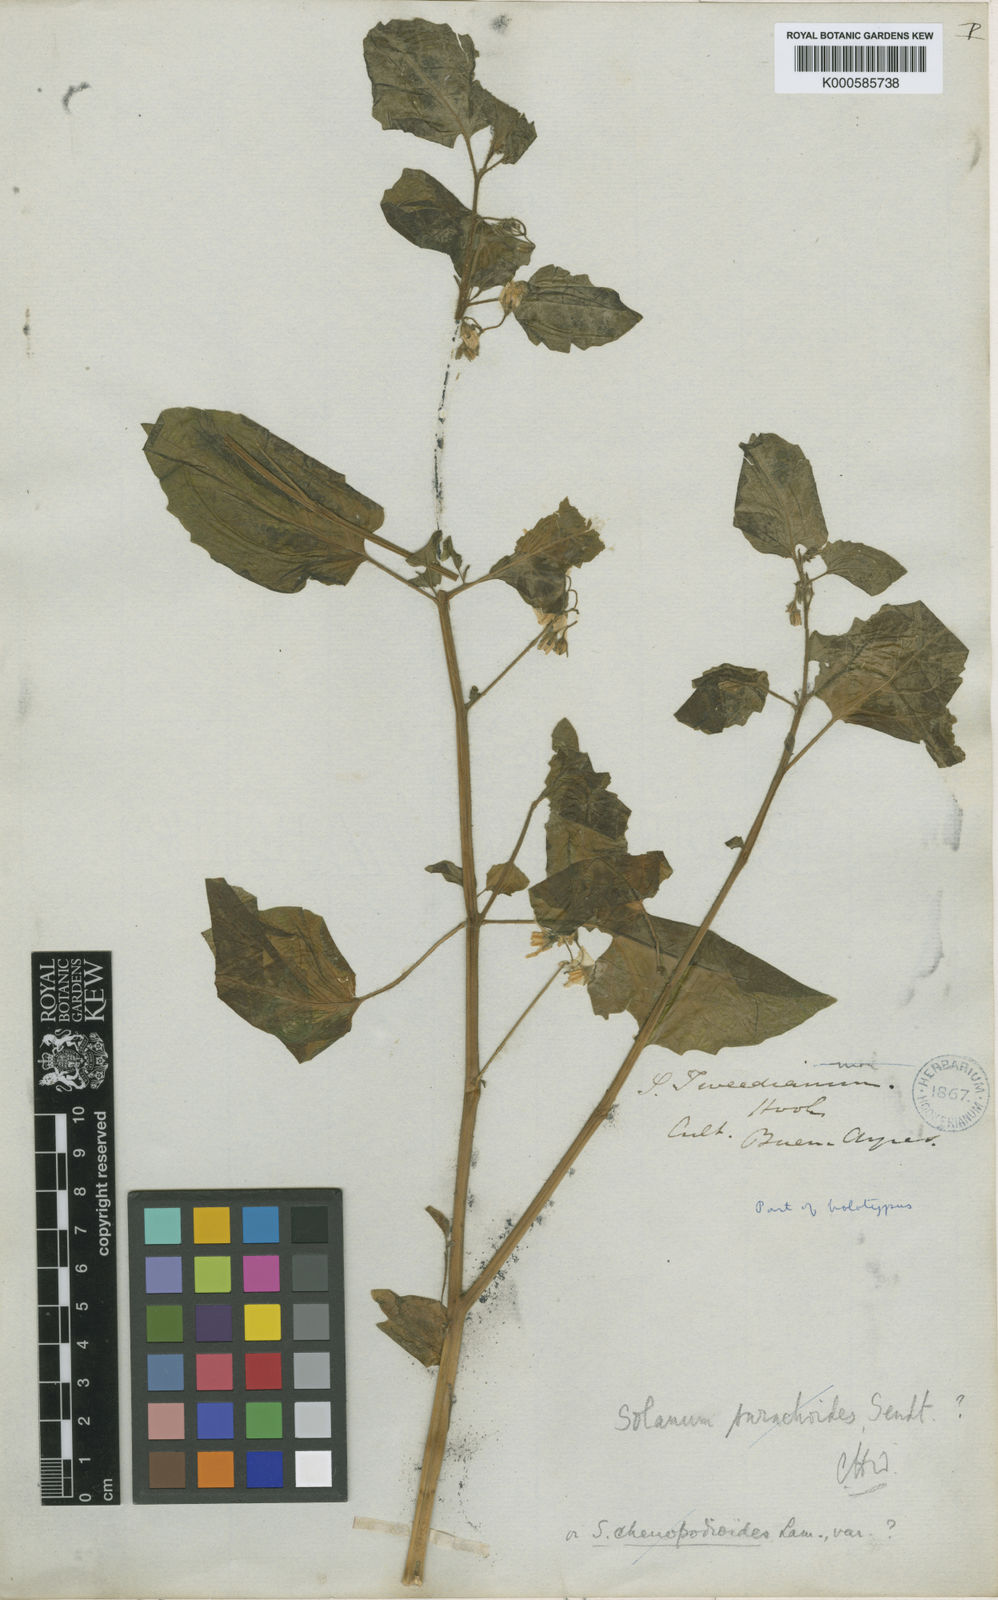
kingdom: Plantae
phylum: Tracheophyta
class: Magnoliopsida
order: Solanales
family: Solanaceae
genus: Solanum
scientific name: Solanum
